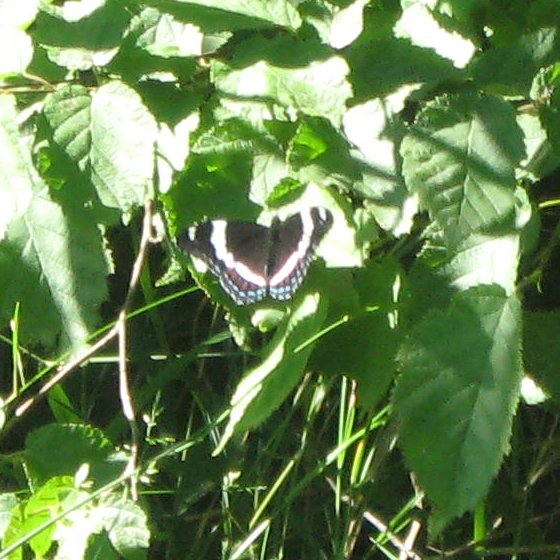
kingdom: Animalia
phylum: Arthropoda
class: Insecta
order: Lepidoptera
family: Nymphalidae
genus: Limenitis
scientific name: Limenitis arthemis
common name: Red-spotted Admiral
